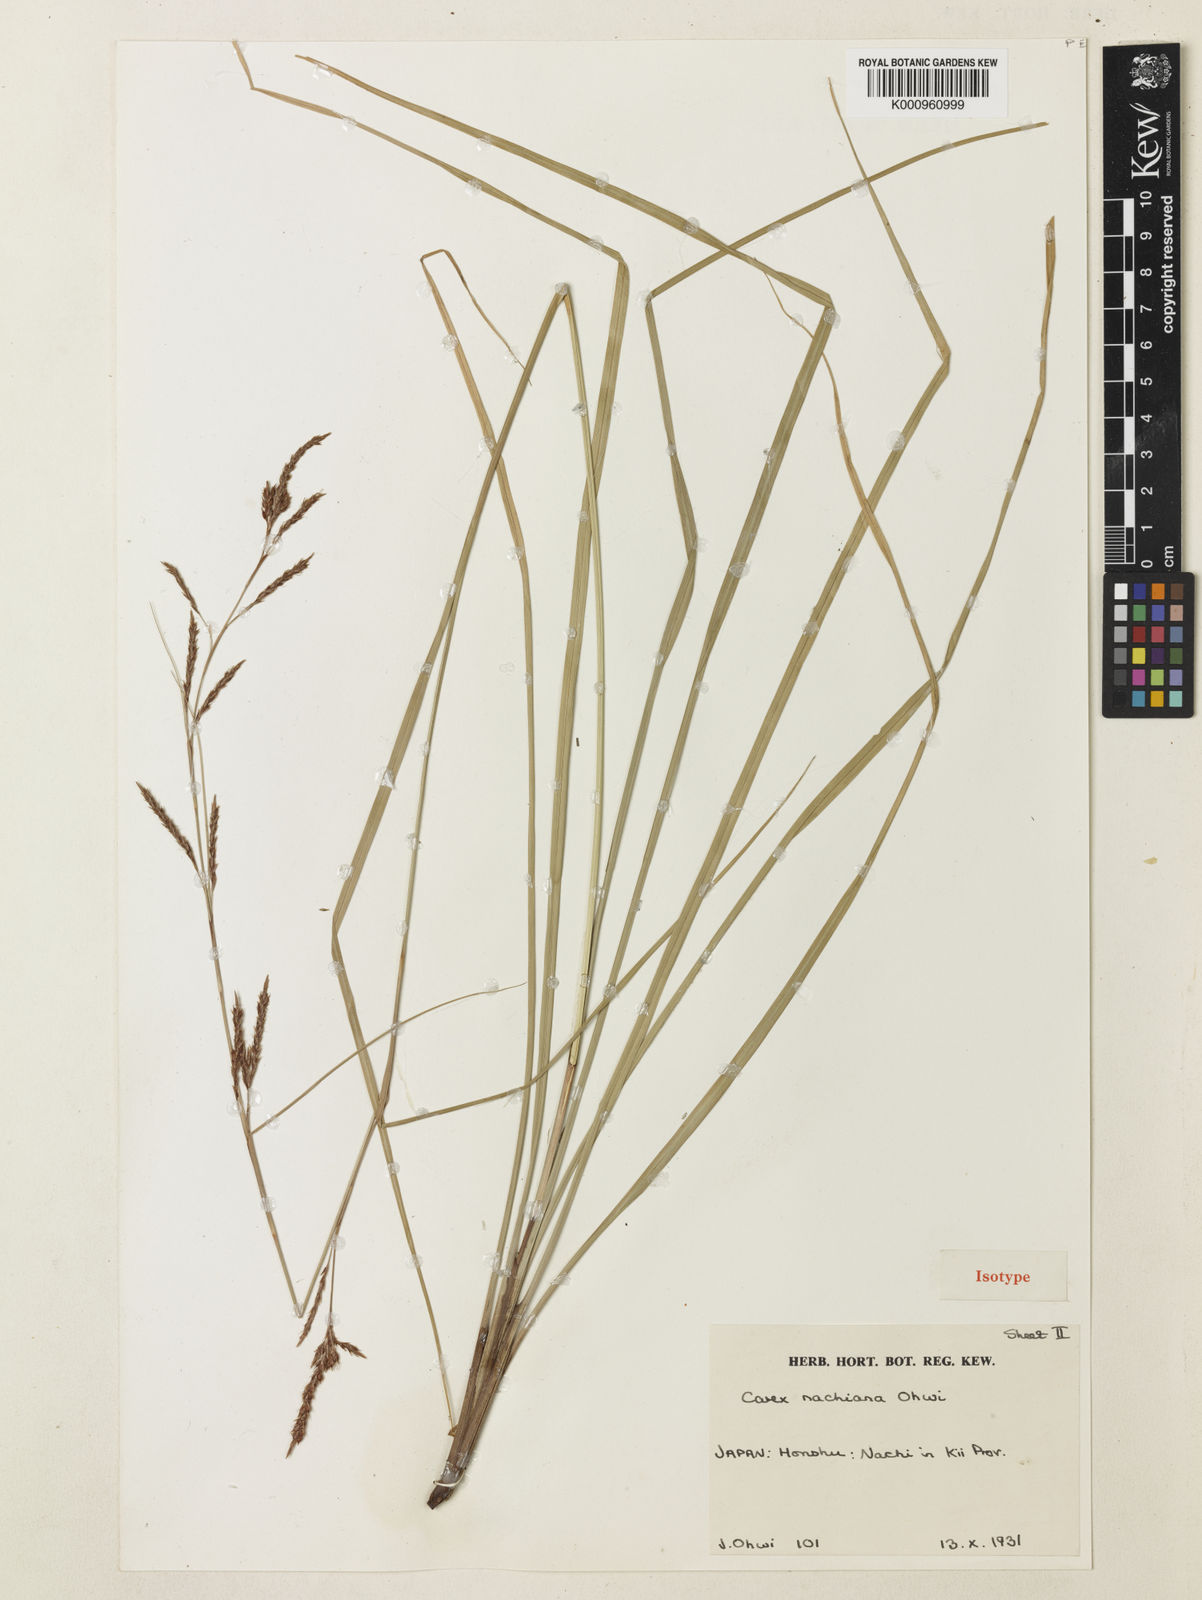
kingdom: Plantae
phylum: Tracheophyta
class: Liliopsida
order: Poales
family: Cyperaceae
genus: Carex
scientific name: Carex nachiana
